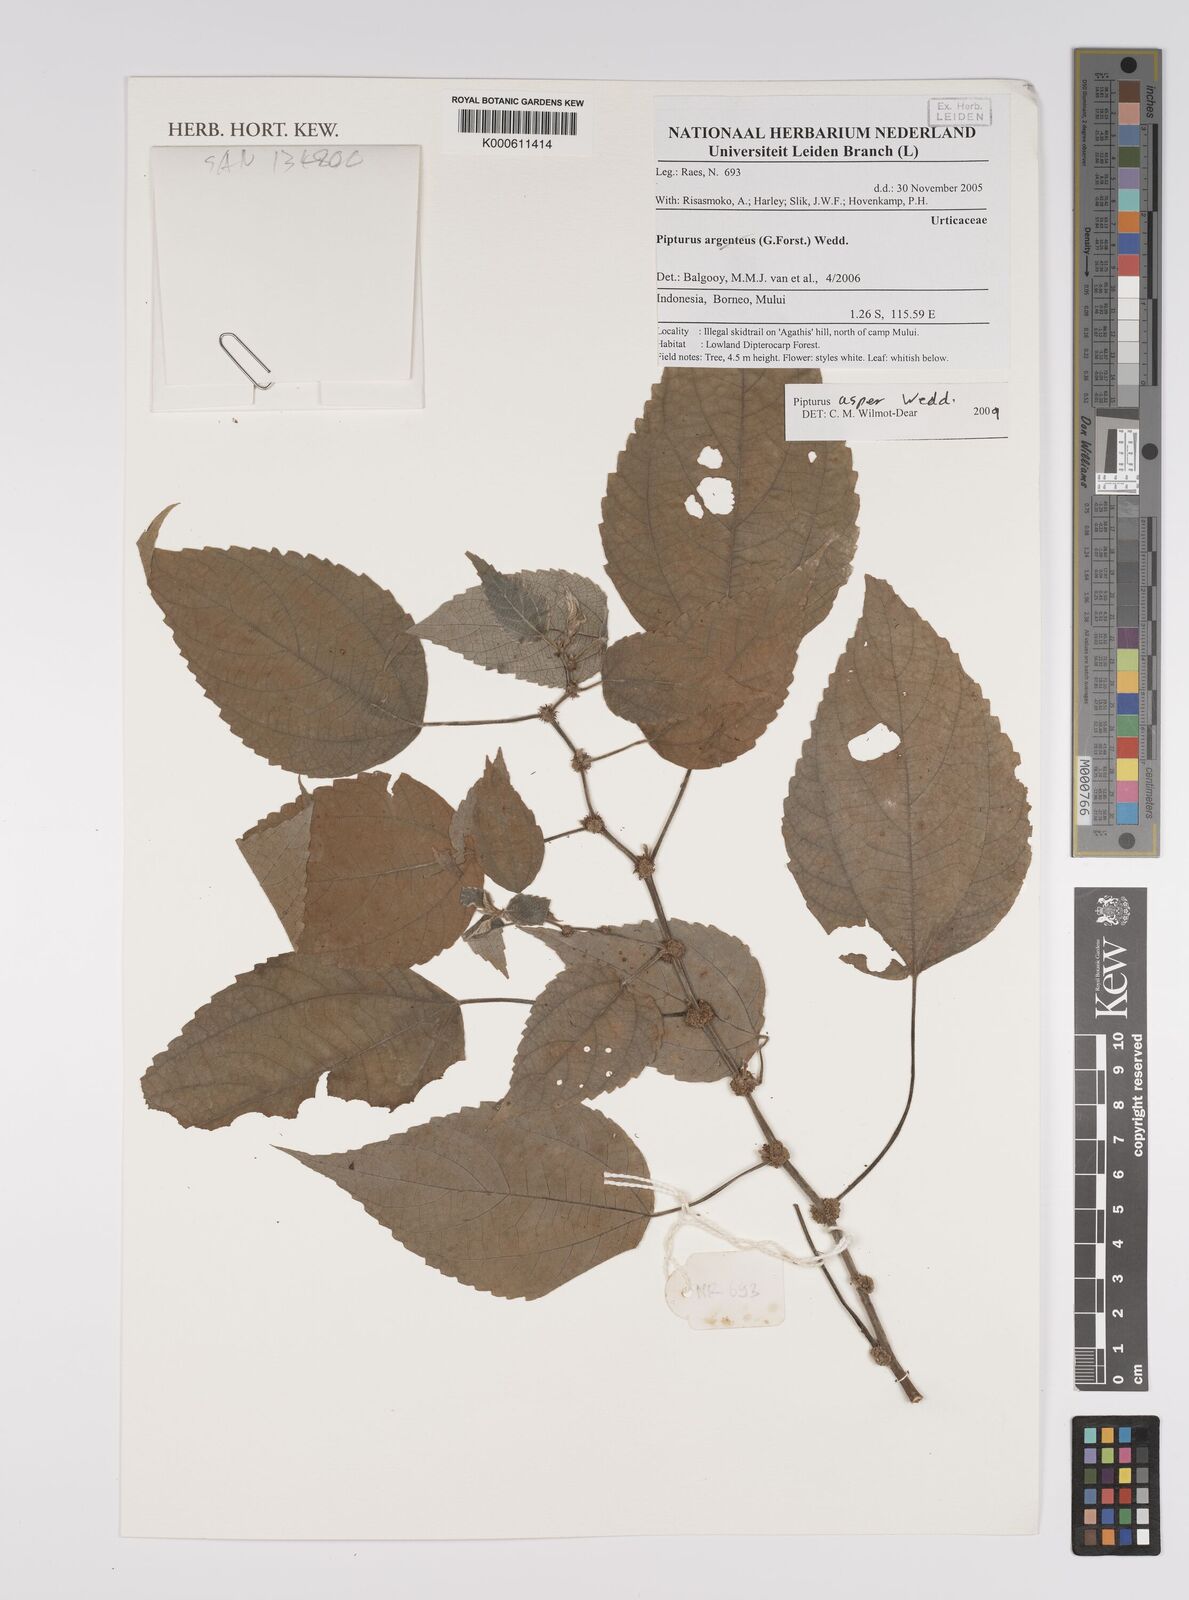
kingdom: Plantae
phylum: Tracheophyta
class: Magnoliopsida
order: Rosales
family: Urticaceae
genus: Pipturus
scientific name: Pipturus
